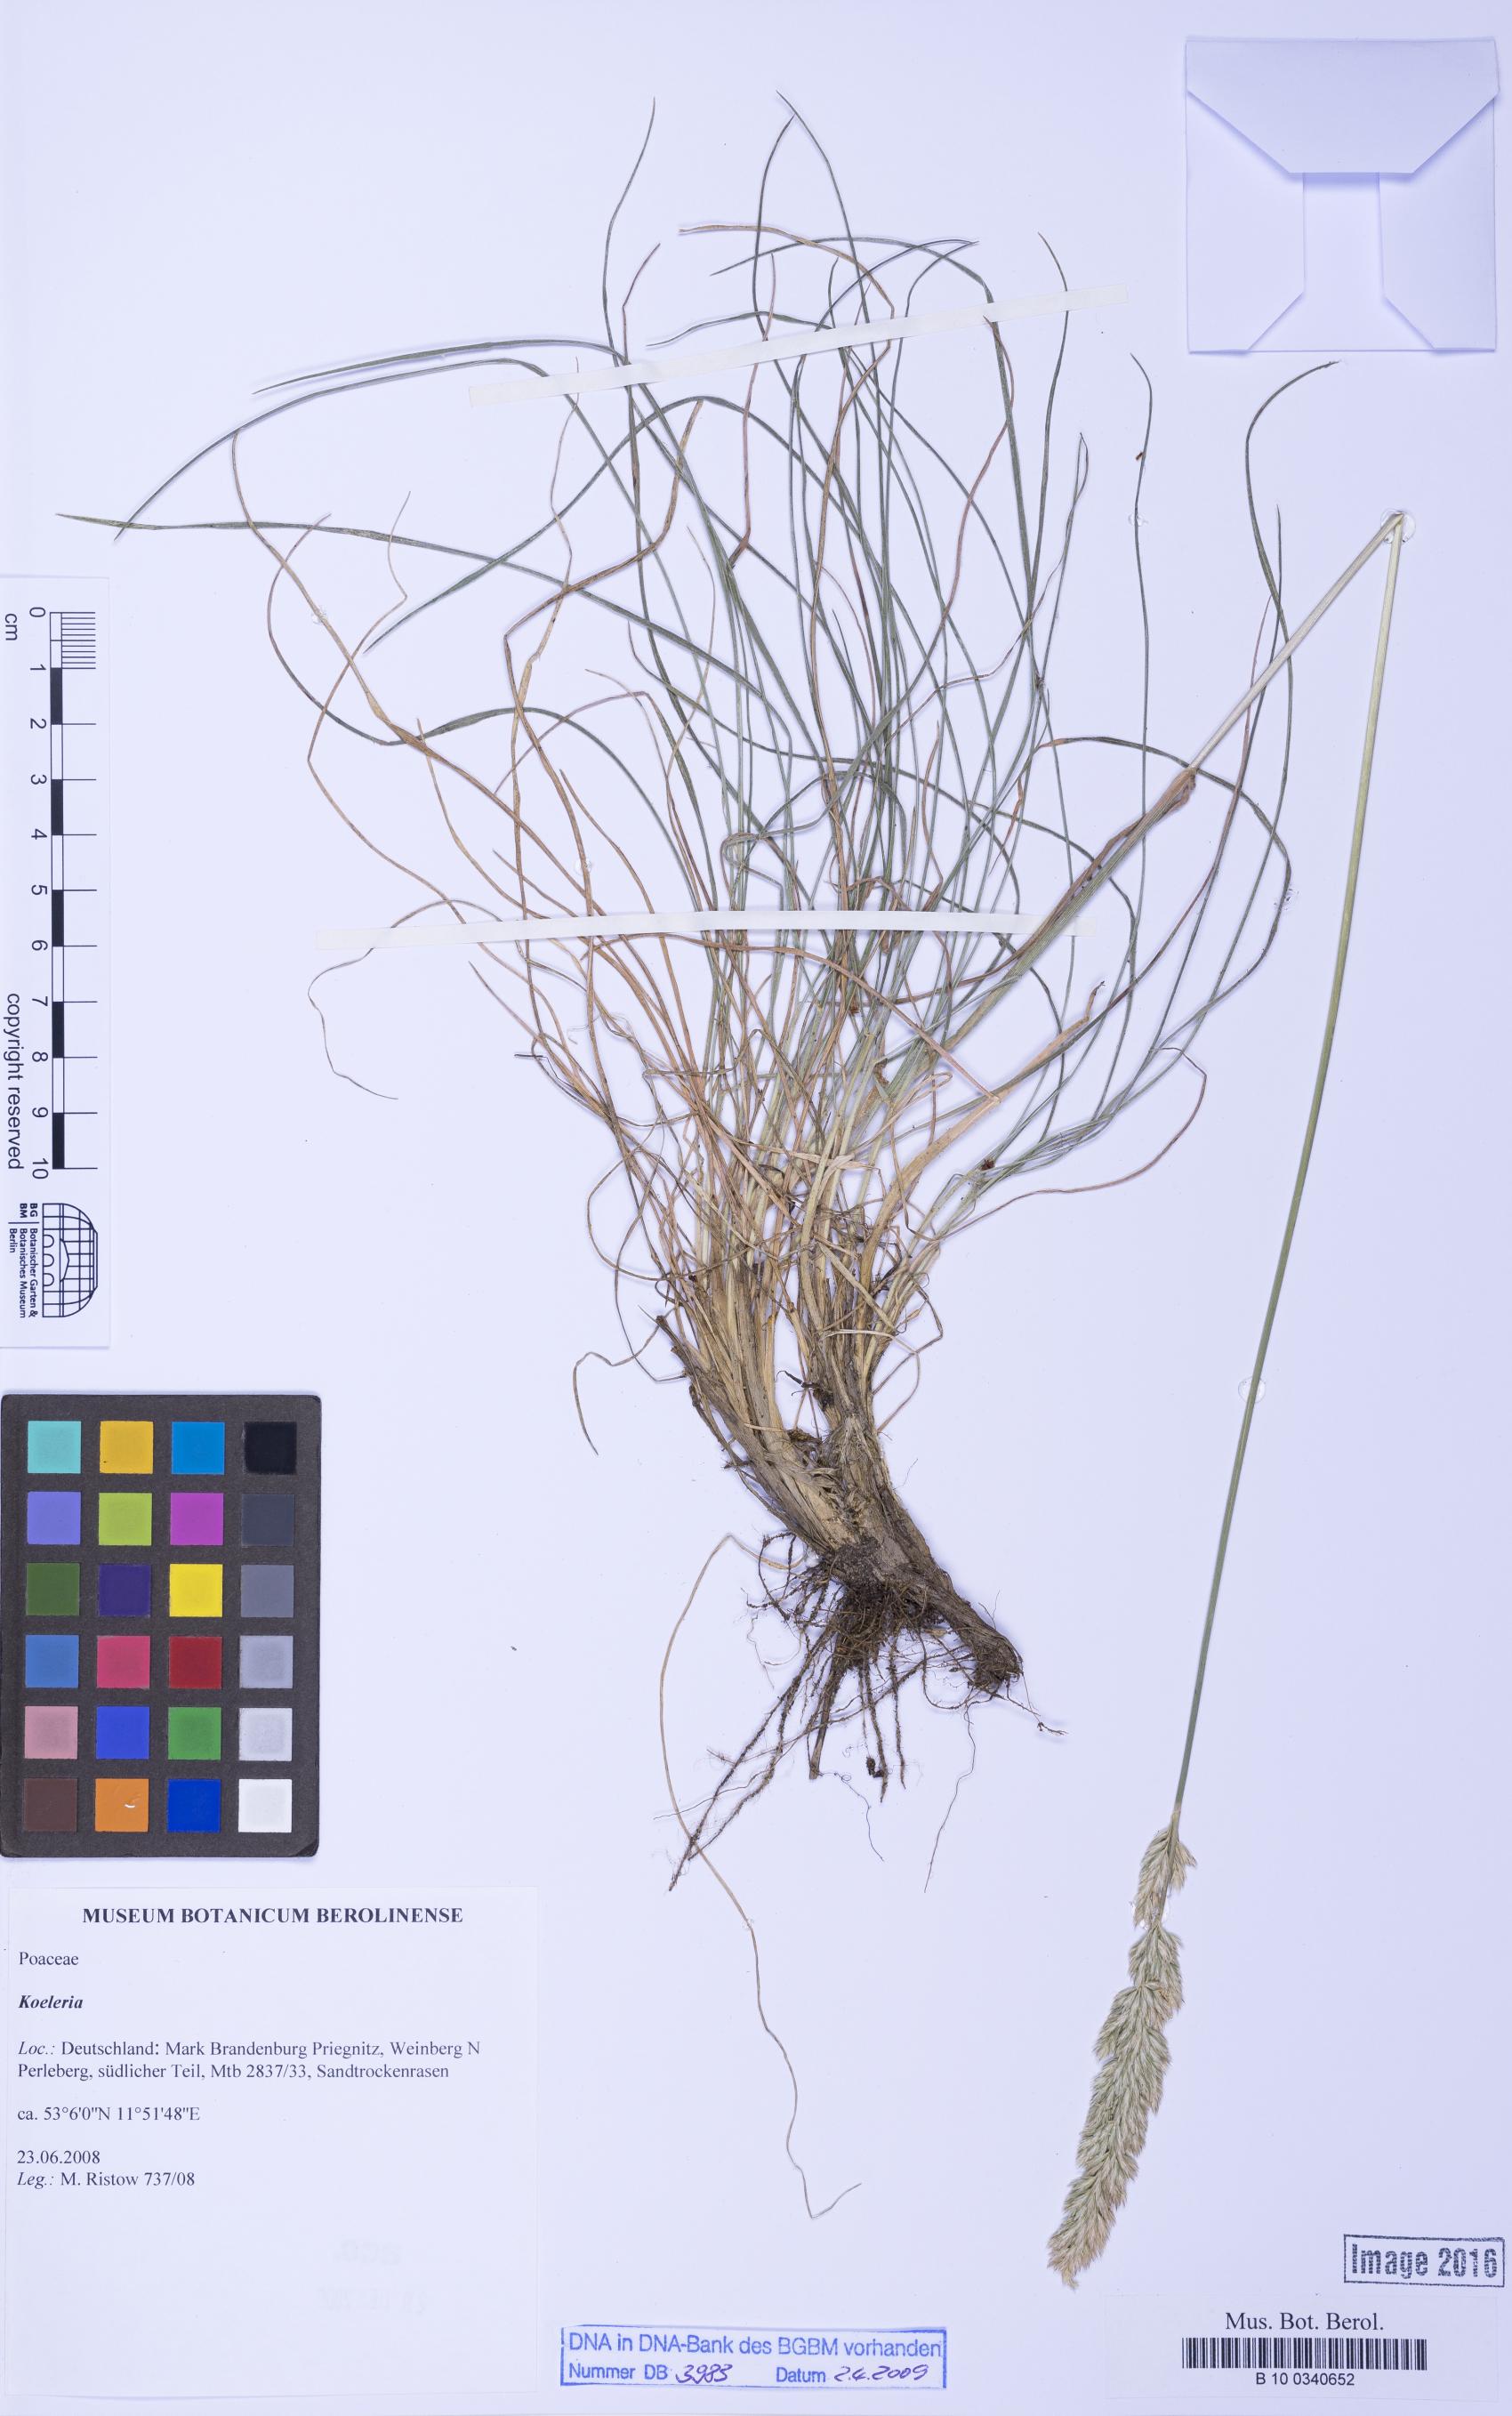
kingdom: Plantae
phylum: Tracheophyta
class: Liliopsida
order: Poales
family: Poaceae
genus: Koeleria
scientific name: Koeleria
